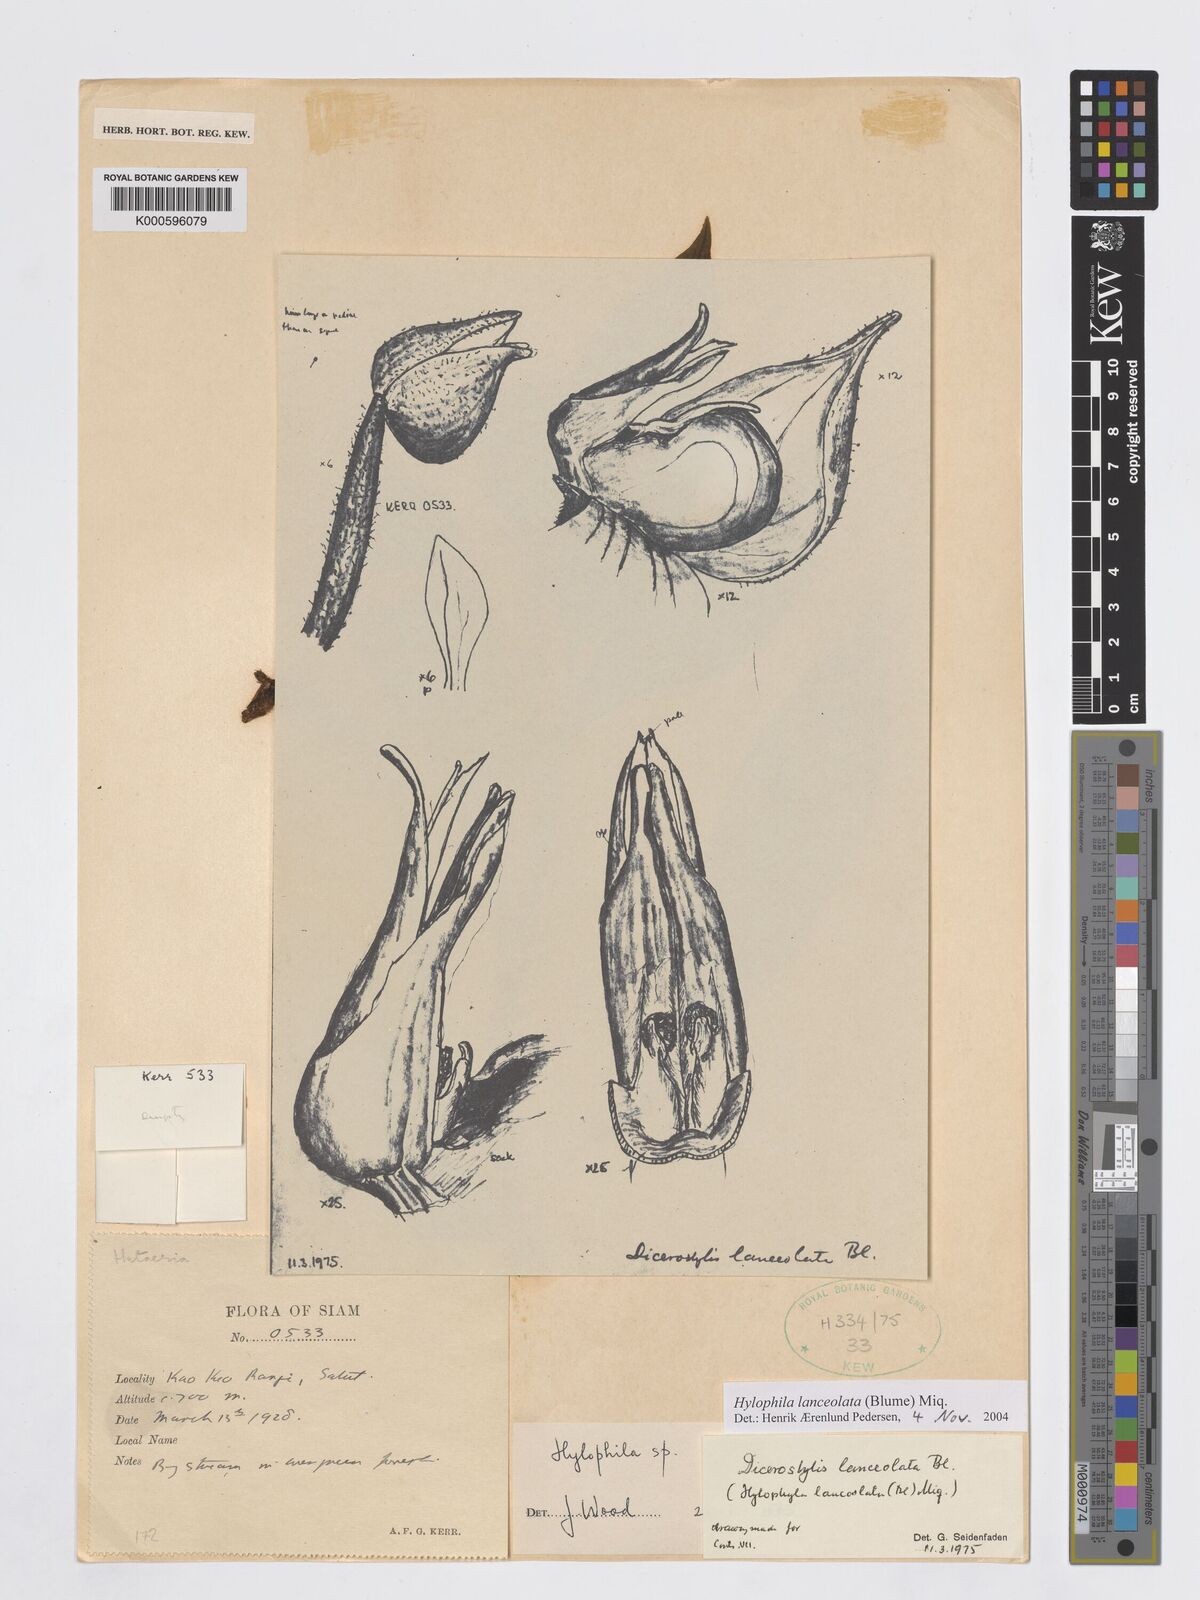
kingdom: Plantae
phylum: Tracheophyta
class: Liliopsida
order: Asparagales
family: Orchidaceae
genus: Hylophila
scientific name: Hylophila lanceolata
